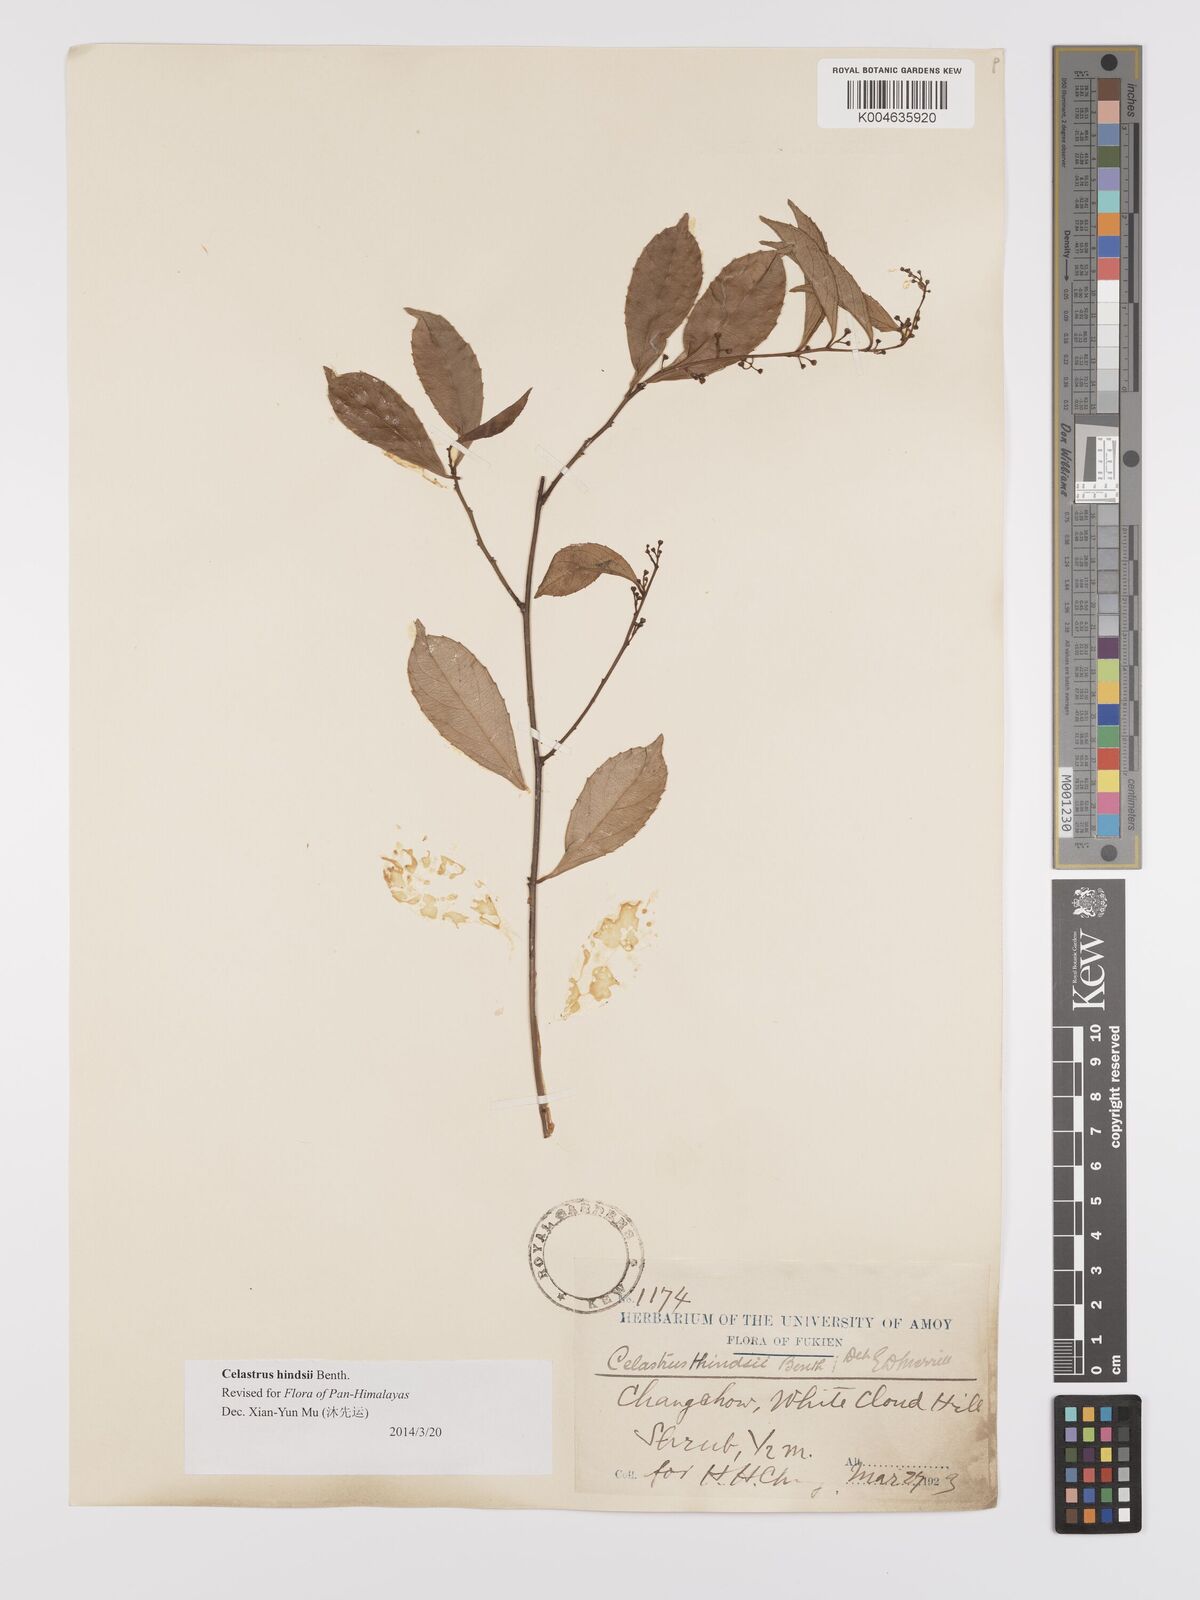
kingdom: Plantae
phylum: Tracheophyta
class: Magnoliopsida
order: Celastrales
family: Celastraceae
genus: Celastrus
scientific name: Celastrus hindsii
